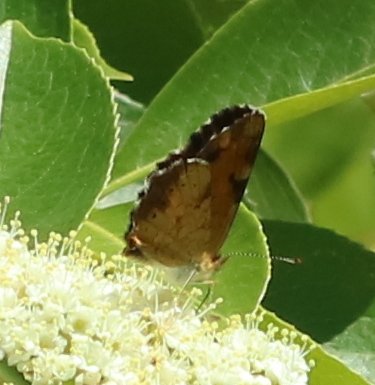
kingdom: Animalia
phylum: Arthropoda
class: Insecta
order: Lepidoptera
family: Nymphalidae
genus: Phyciodes
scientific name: Phyciodes tharos
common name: Northern Crescent
